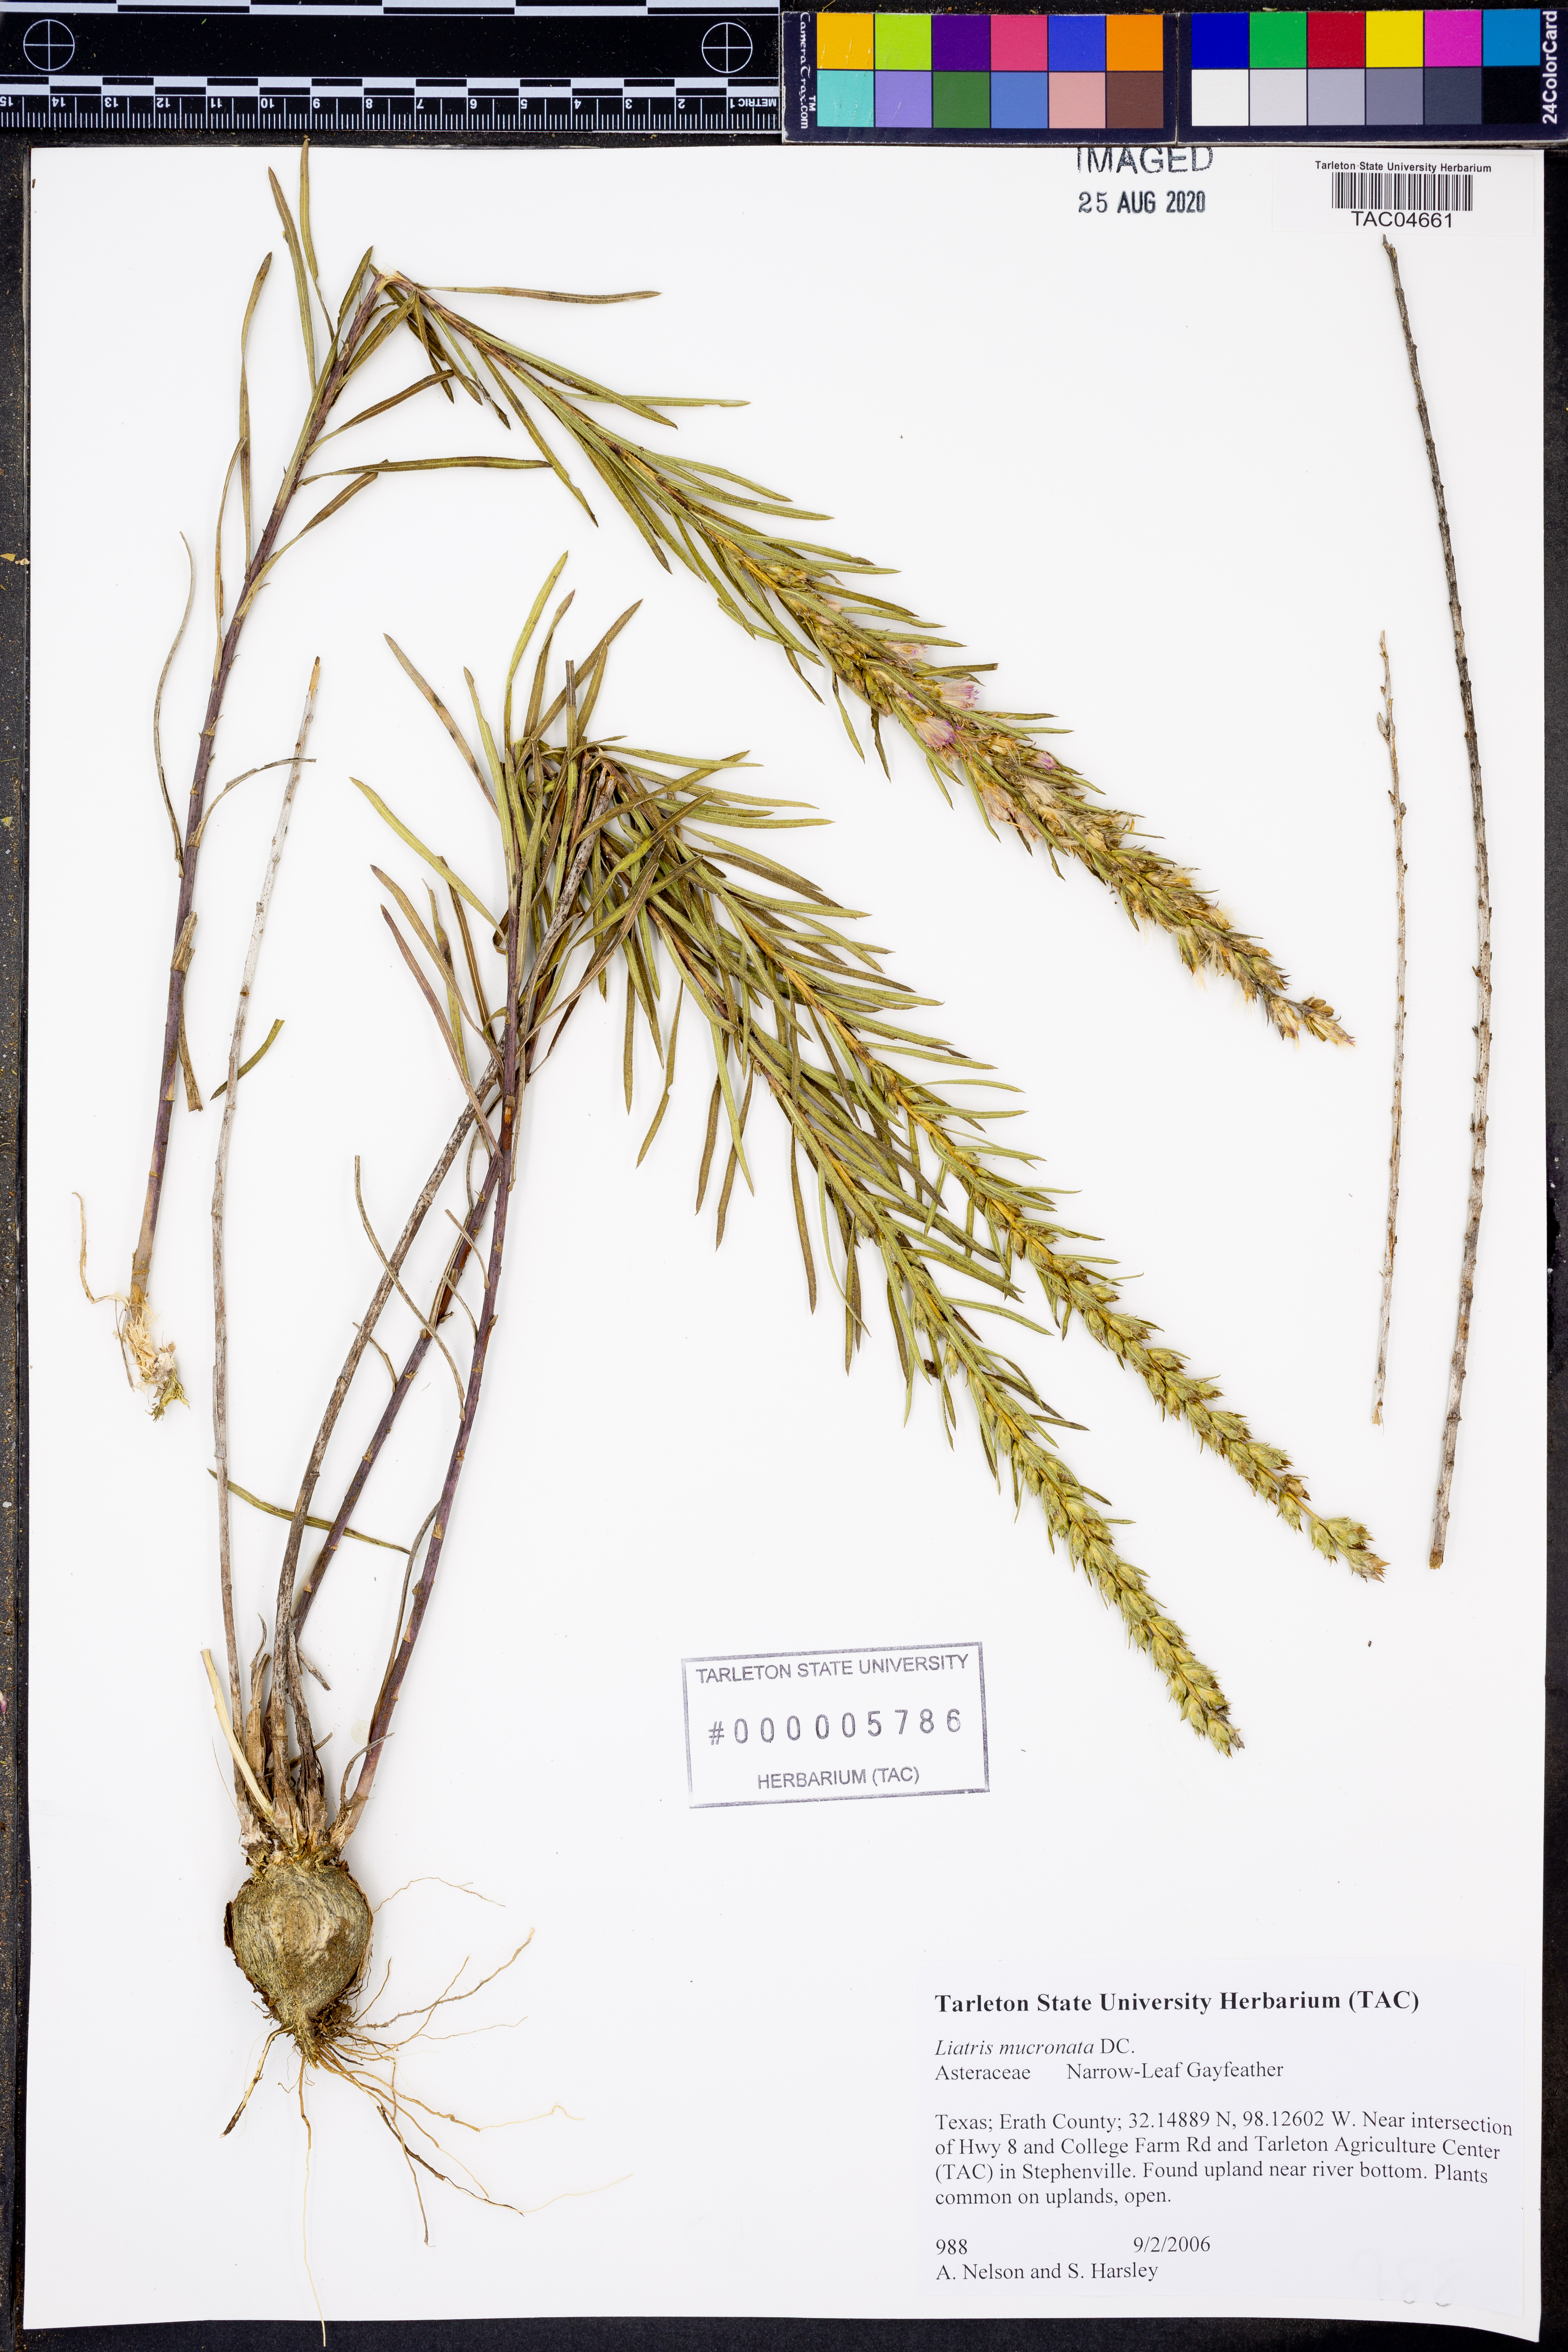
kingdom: Plantae
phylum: Tracheophyta
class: Magnoliopsida
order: Asterales
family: Asteraceae
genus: Liatris
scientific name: Liatris mucronata
